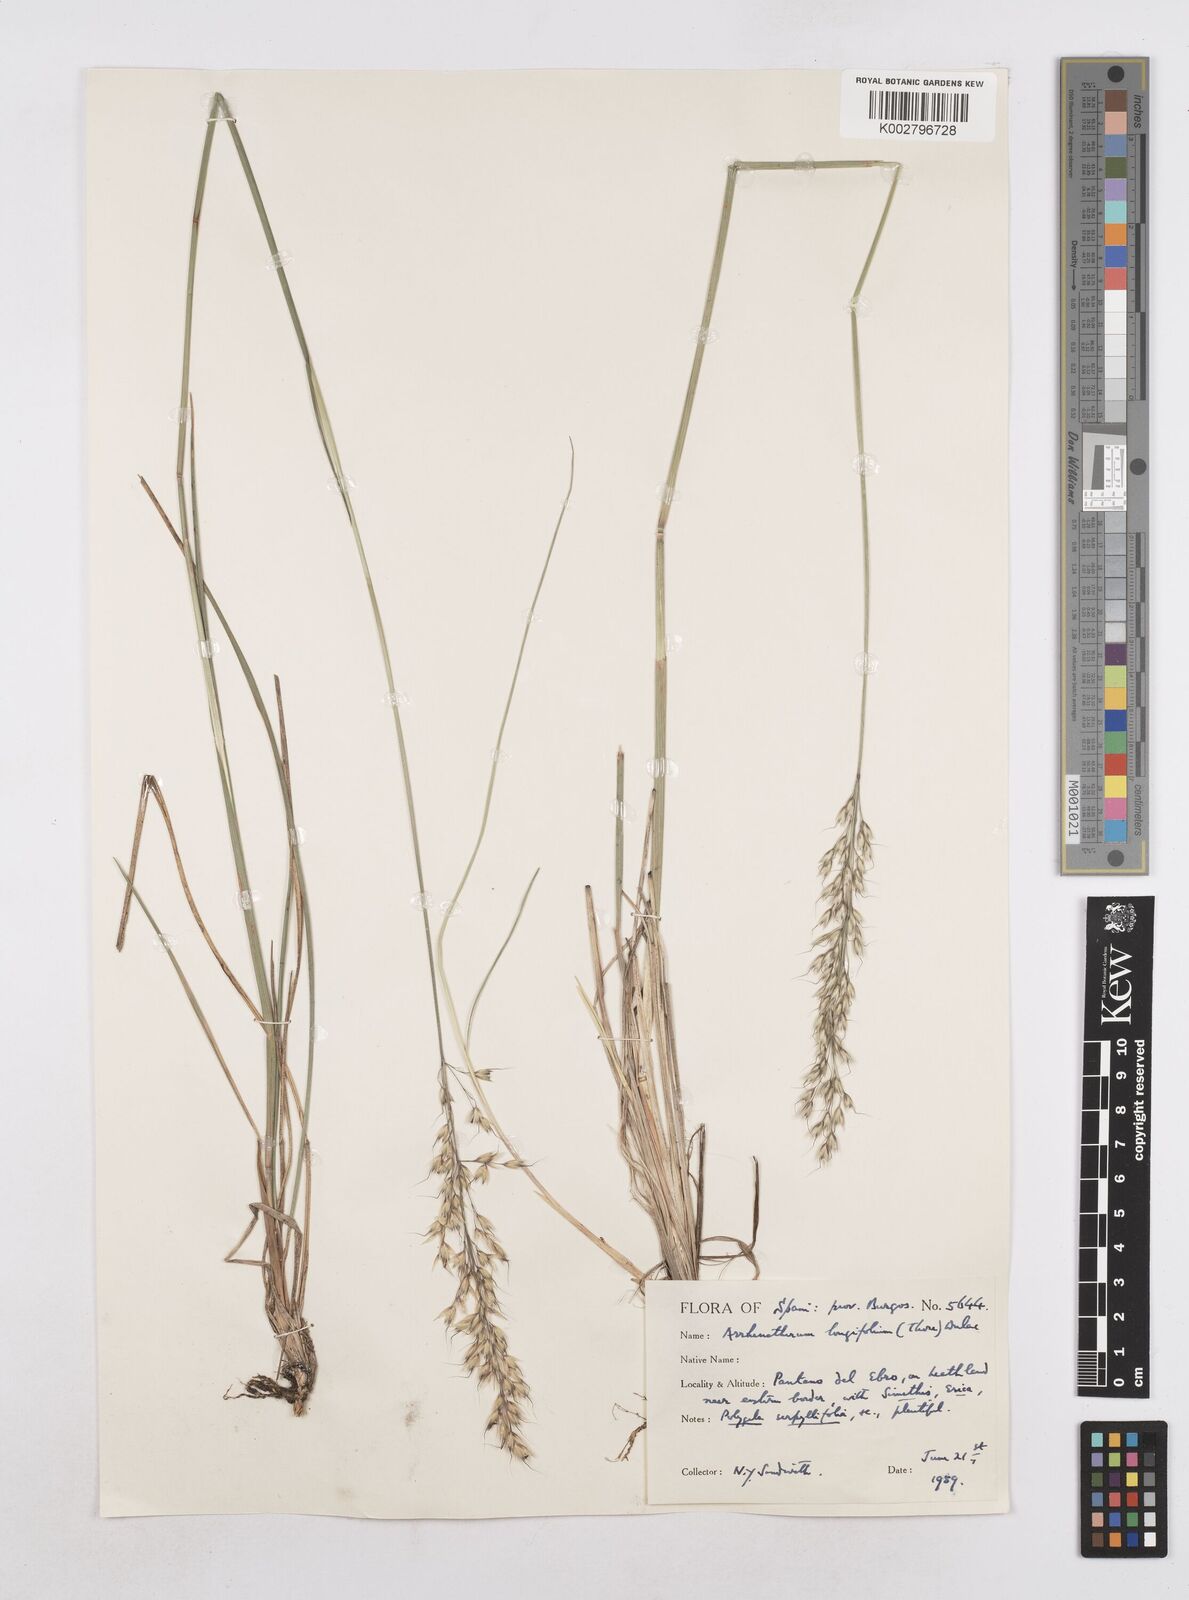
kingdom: Plantae
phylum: Tracheophyta
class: Liliopsida
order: Poales
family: Poaceae
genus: Arrhenatherum
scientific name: Arrhenatherum longifolium
